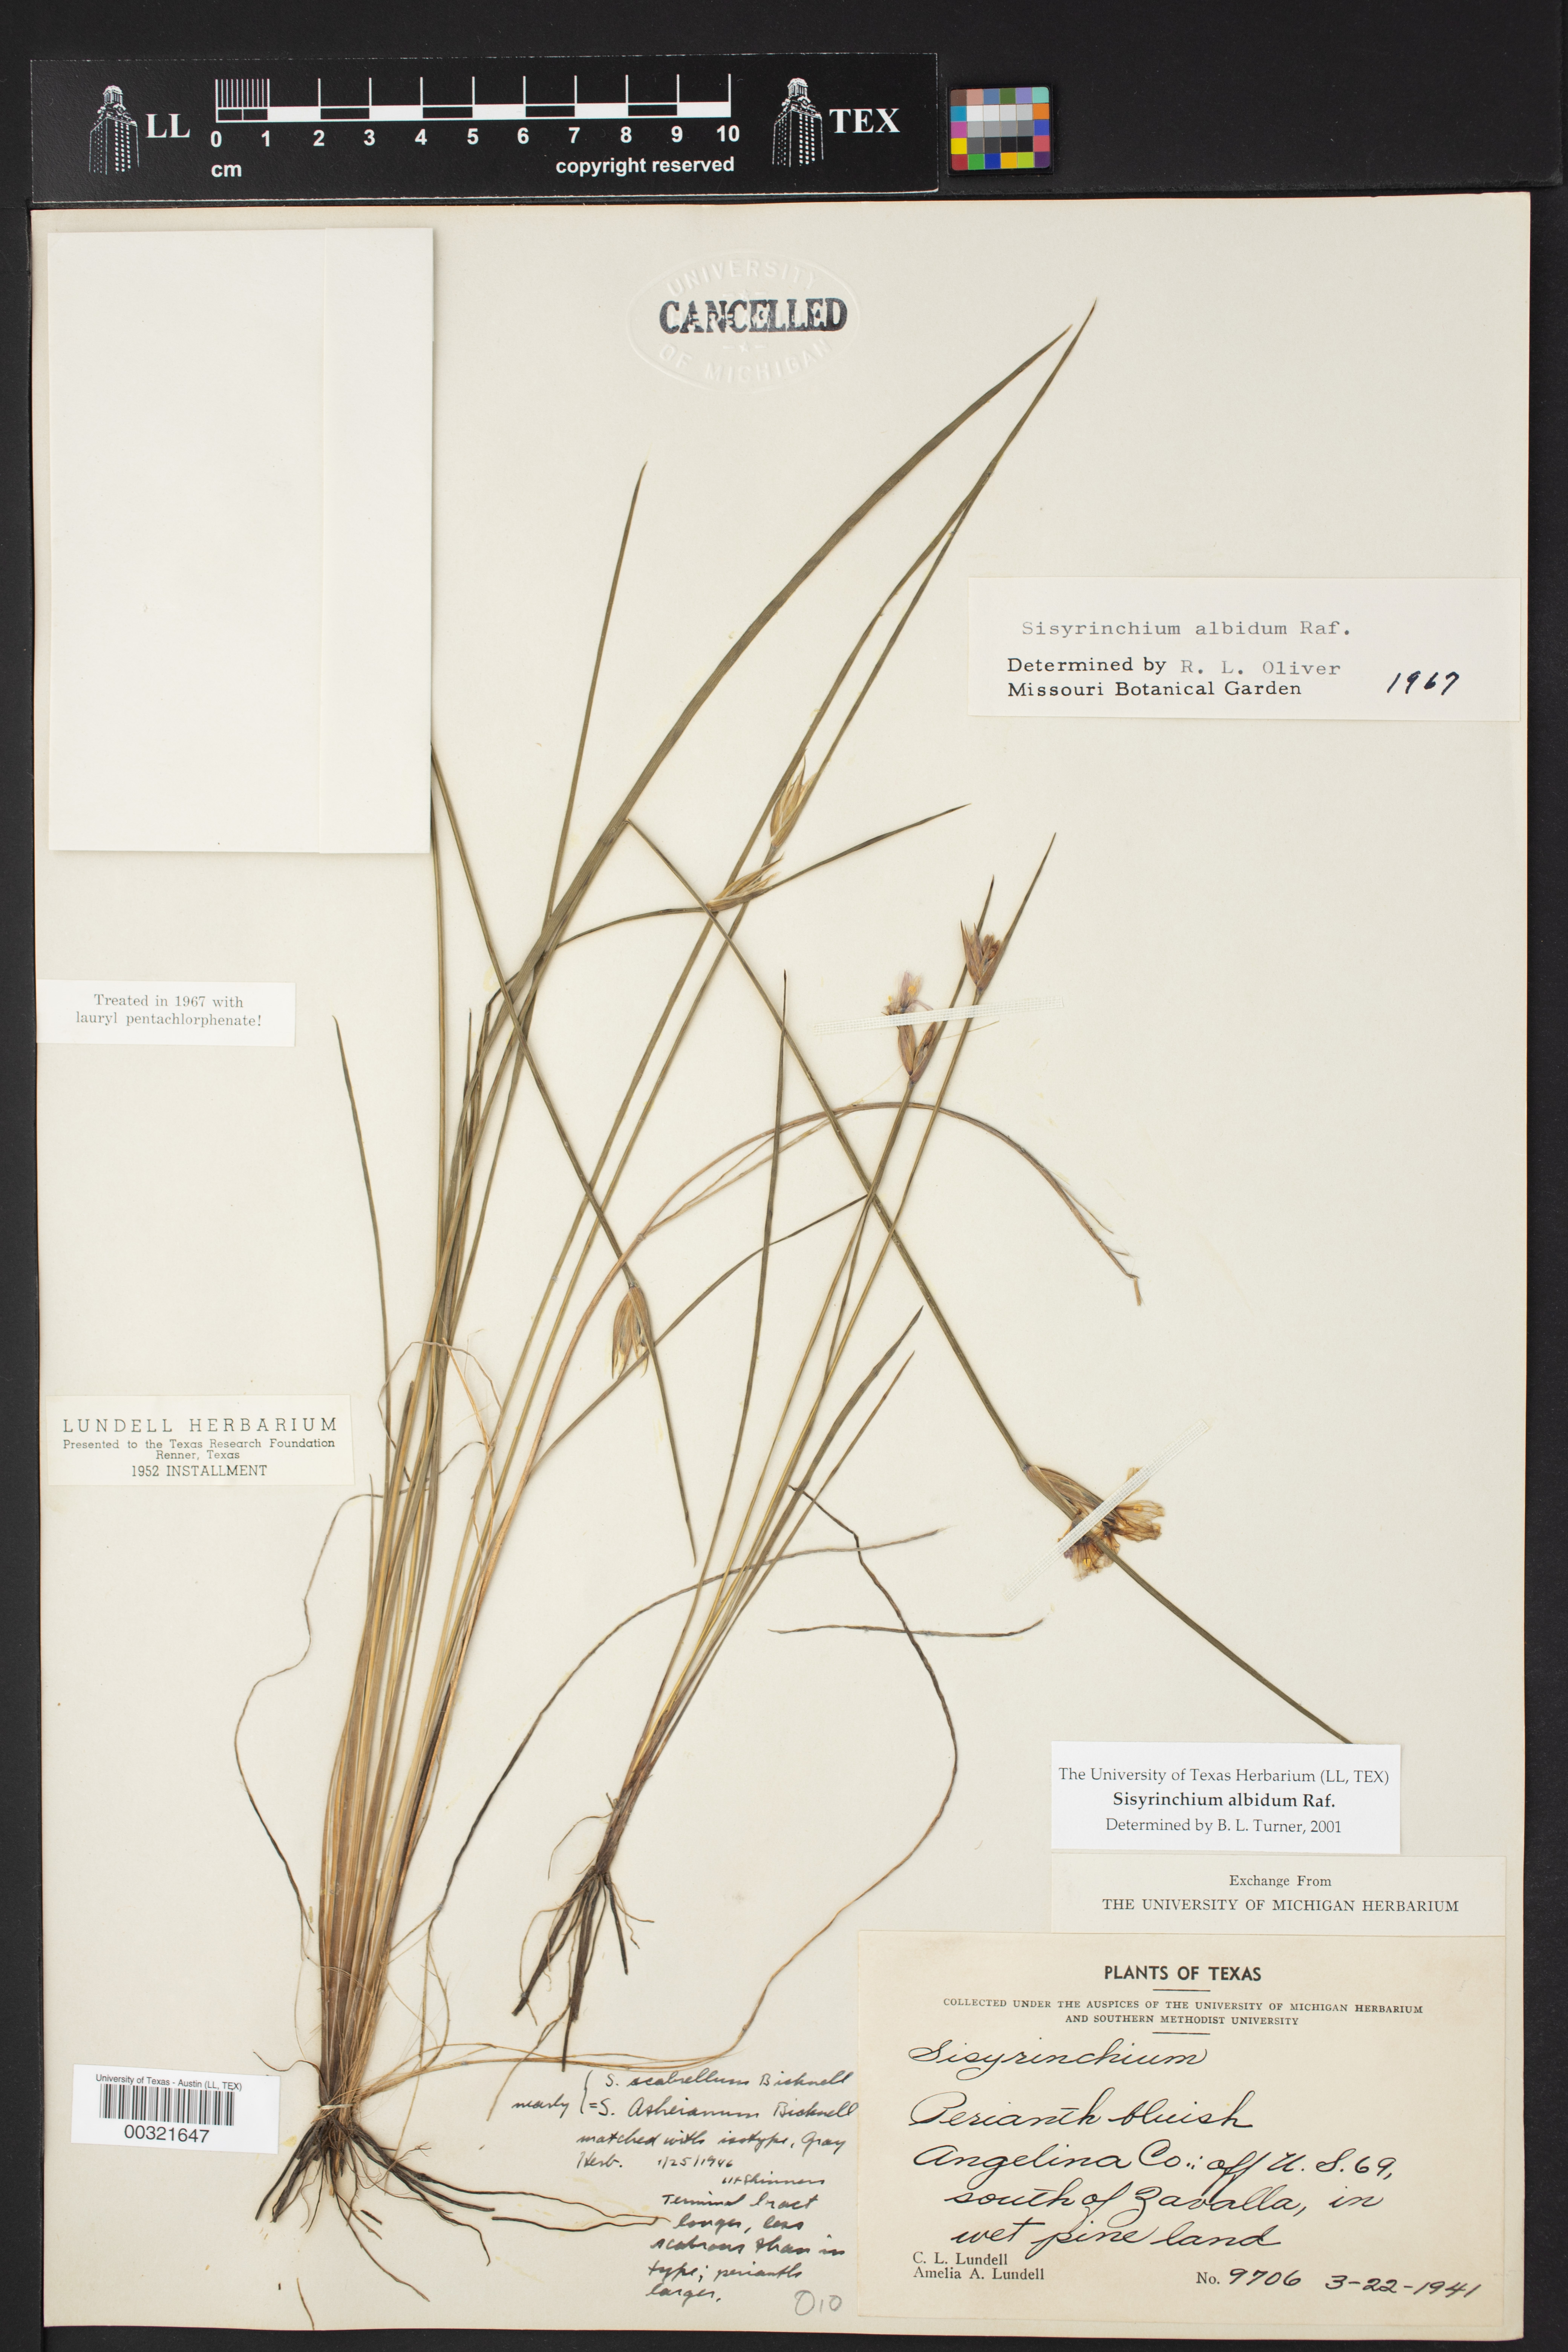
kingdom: Plantae
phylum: Tracheophyta
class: Liliopsida
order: Asparagales
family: Iridaceae
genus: Sisyrinchium
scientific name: Sisyrinchium albidum
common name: Pale blue-eyed-grass
